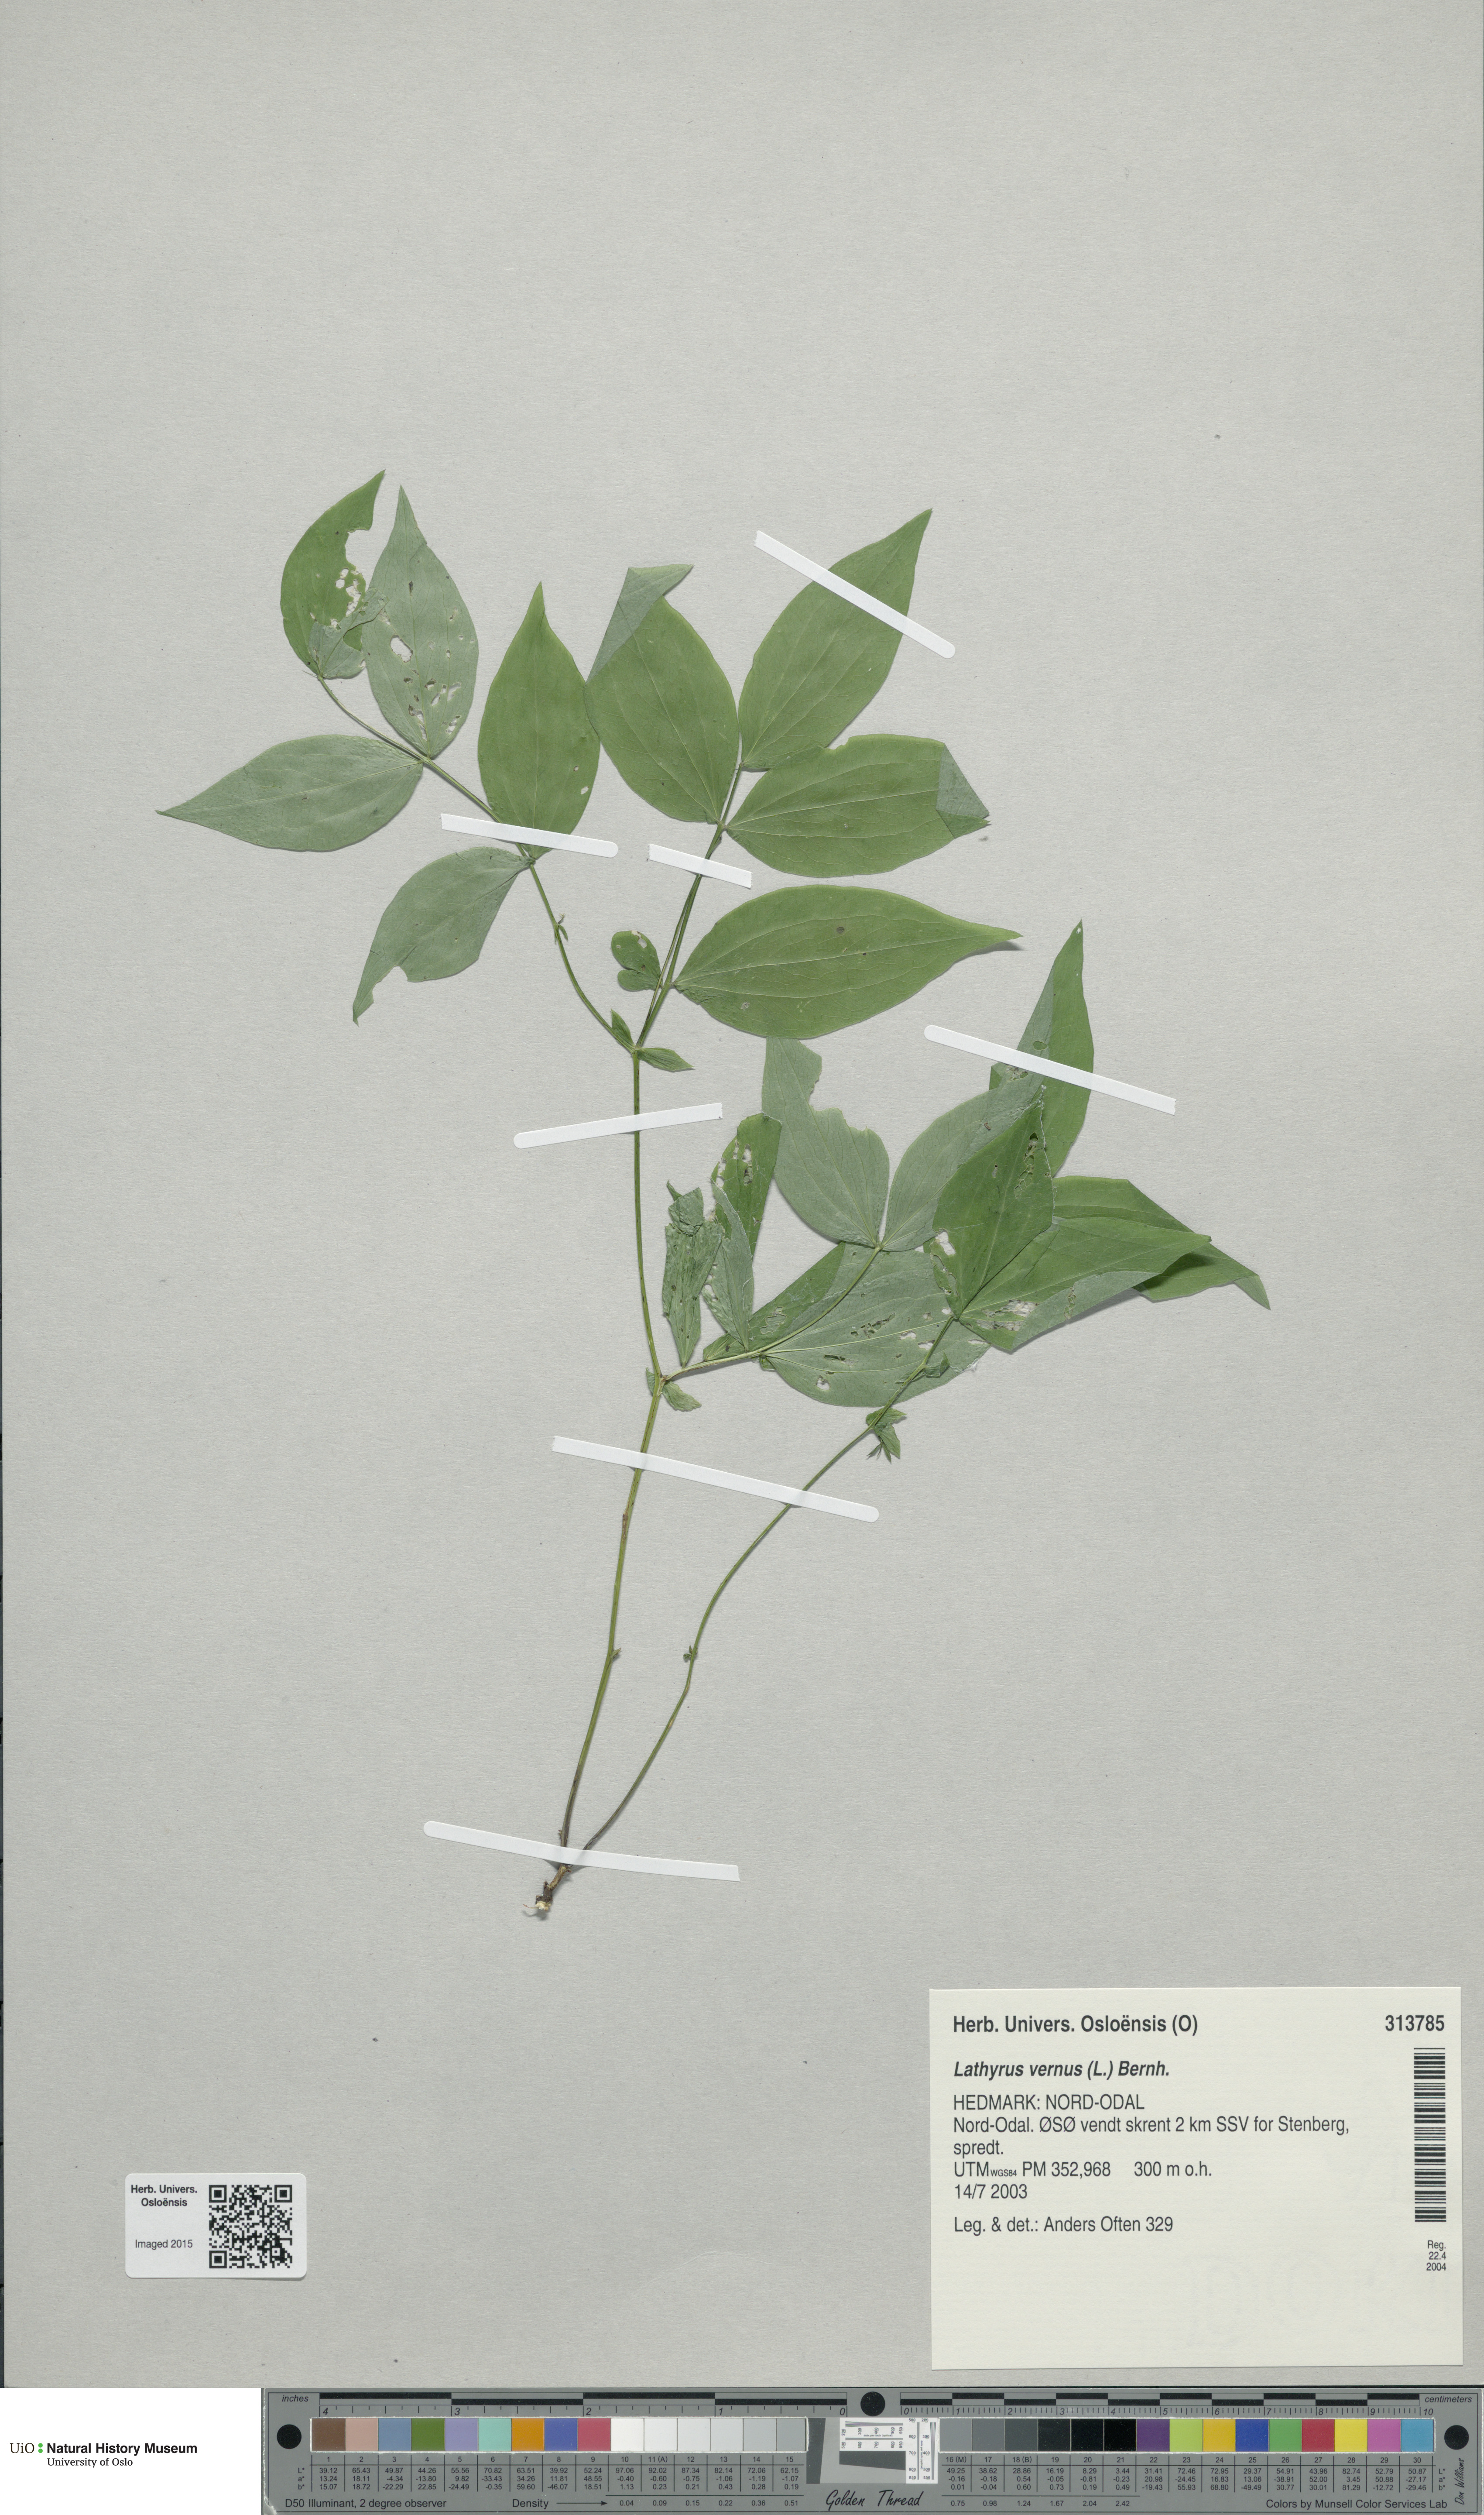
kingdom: Plantae
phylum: Tracheophyta
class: Magnoliopsida
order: Fabales
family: Fabaceae
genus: Lathyrus
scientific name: Lathyrus vernus
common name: Spring pea
